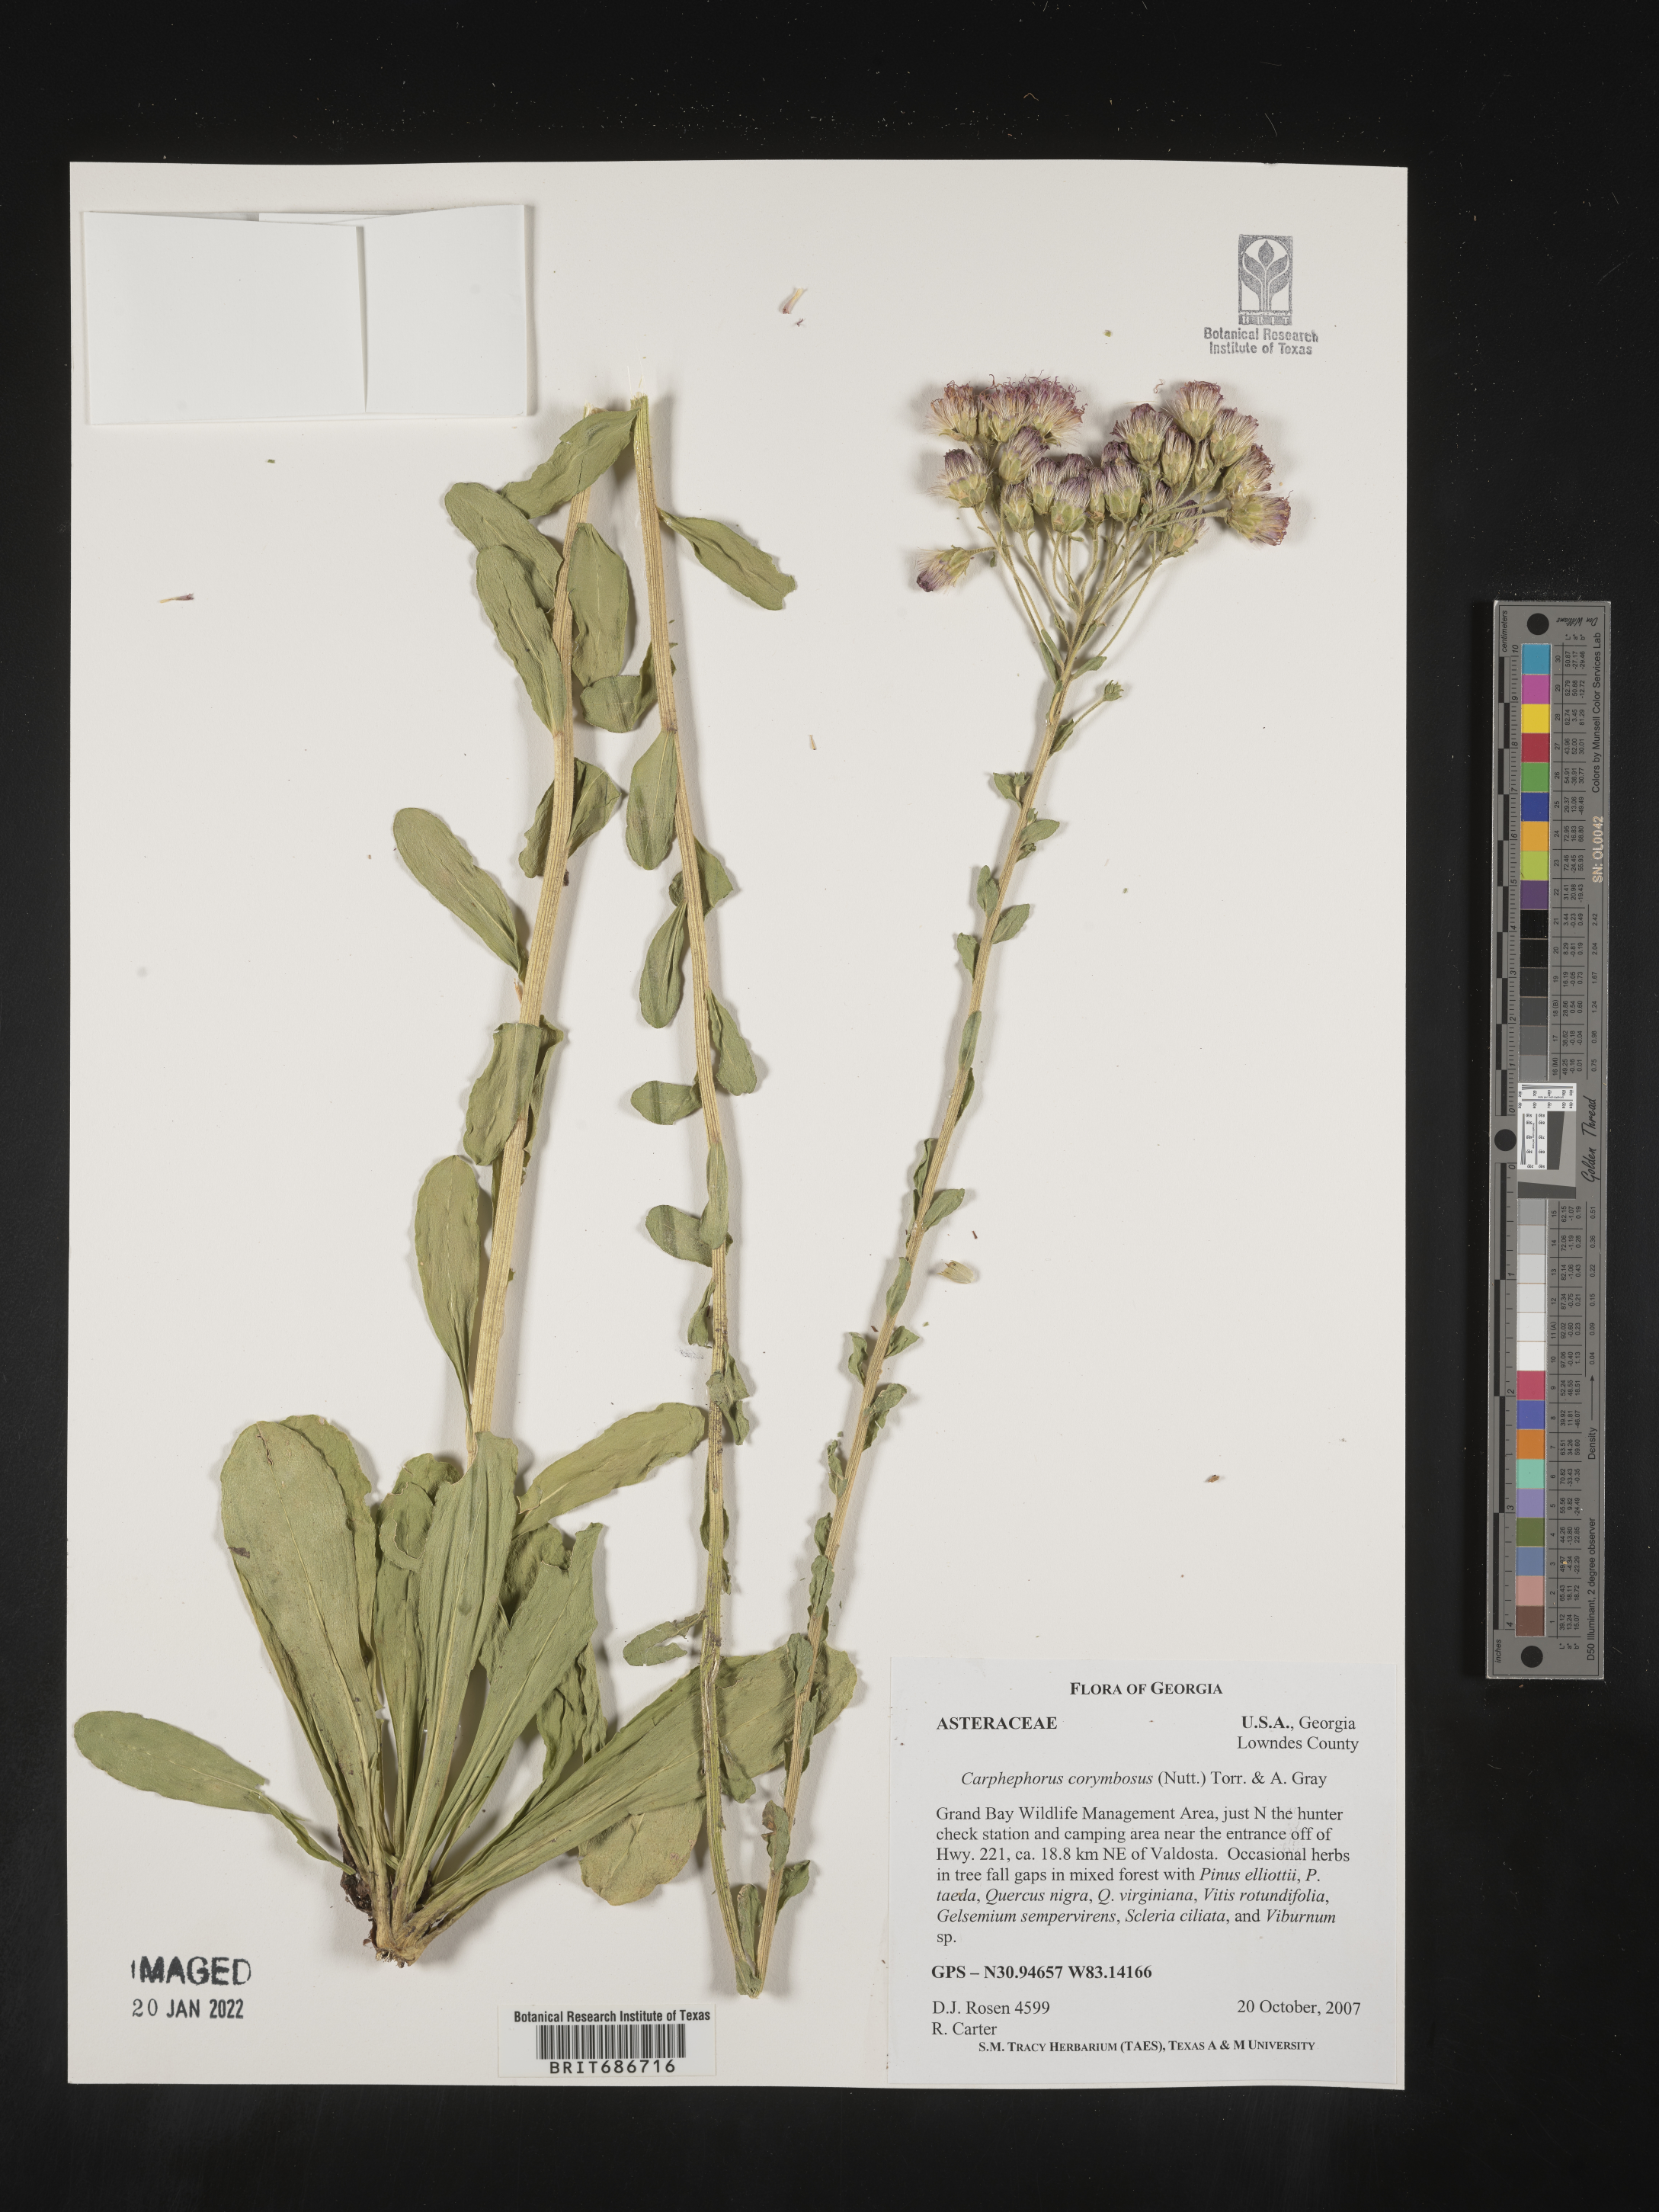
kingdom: Plantae
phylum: Tracheophyta
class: Magnoliopsida
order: Asterales
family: Asteraceae
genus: Carphephorus
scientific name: Carphephorus corymbosus
